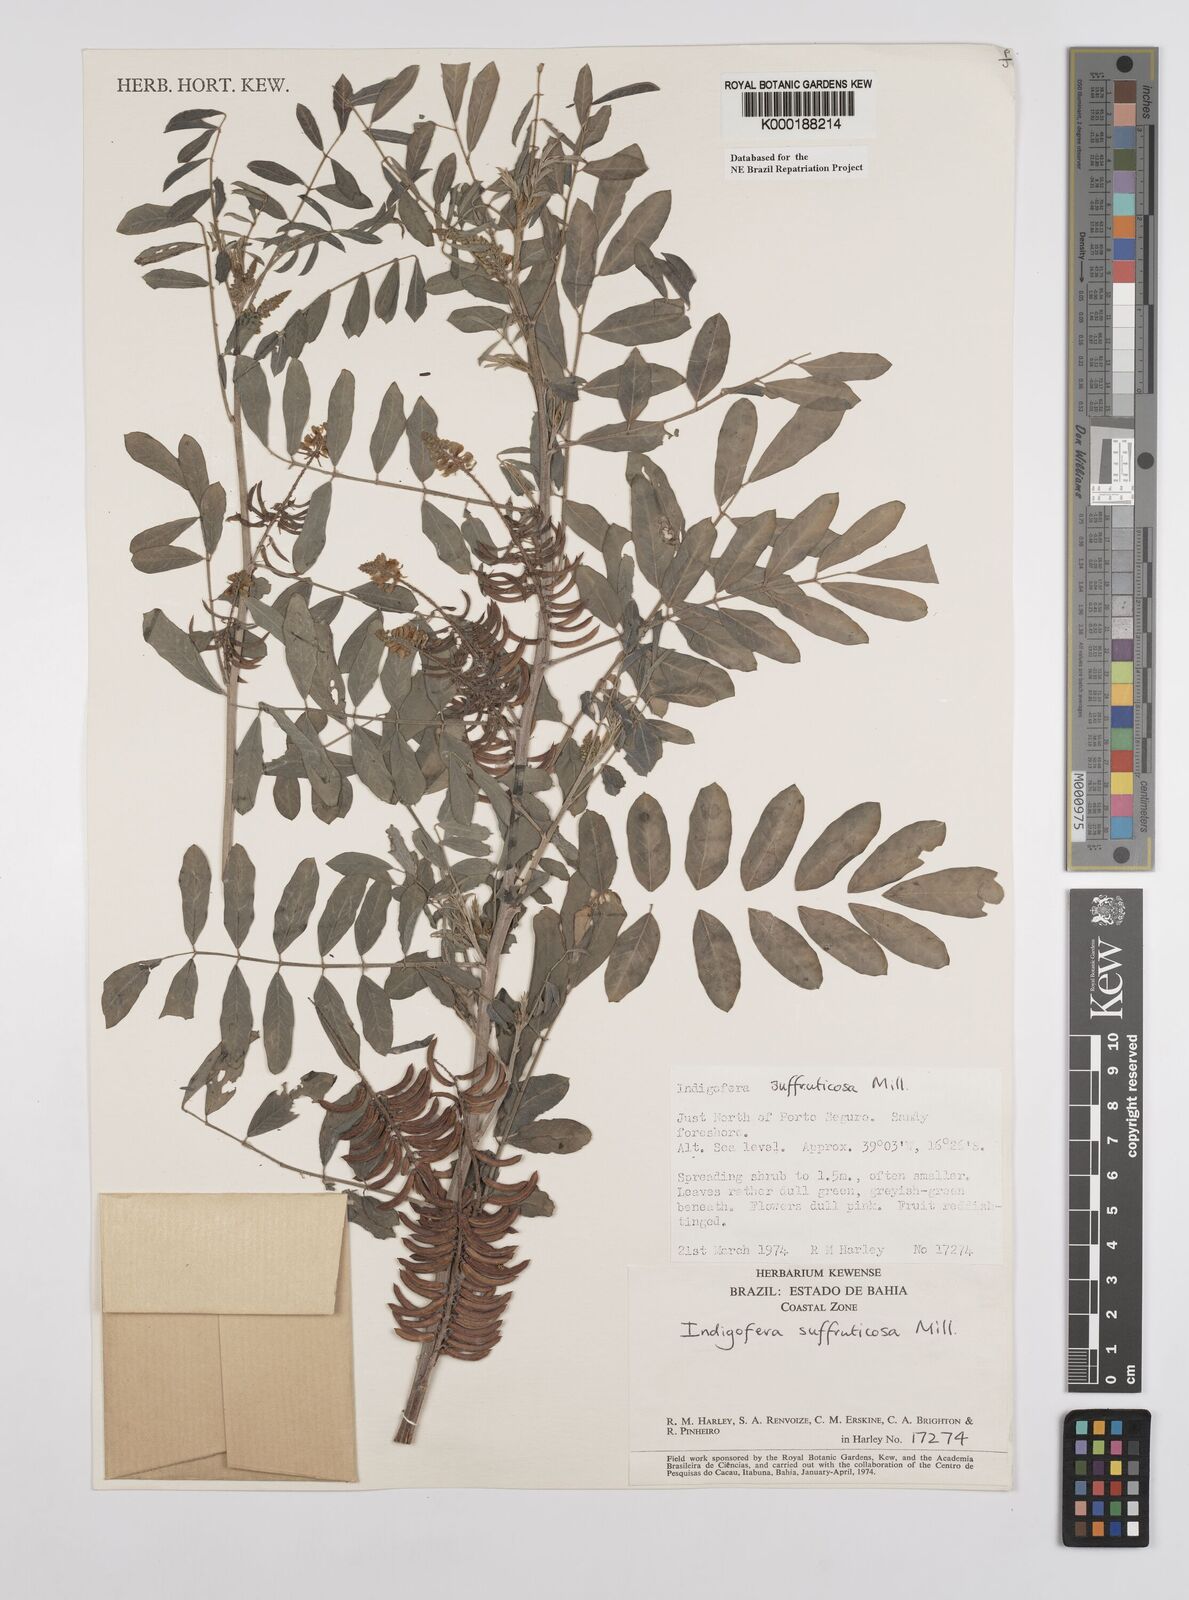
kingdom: Plantae
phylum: Tracheophyta
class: Magnoliopsida
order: Fabales
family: Fabaceae
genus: Indigofera
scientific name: Indigofera suffruticosa
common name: Anil de pasto
